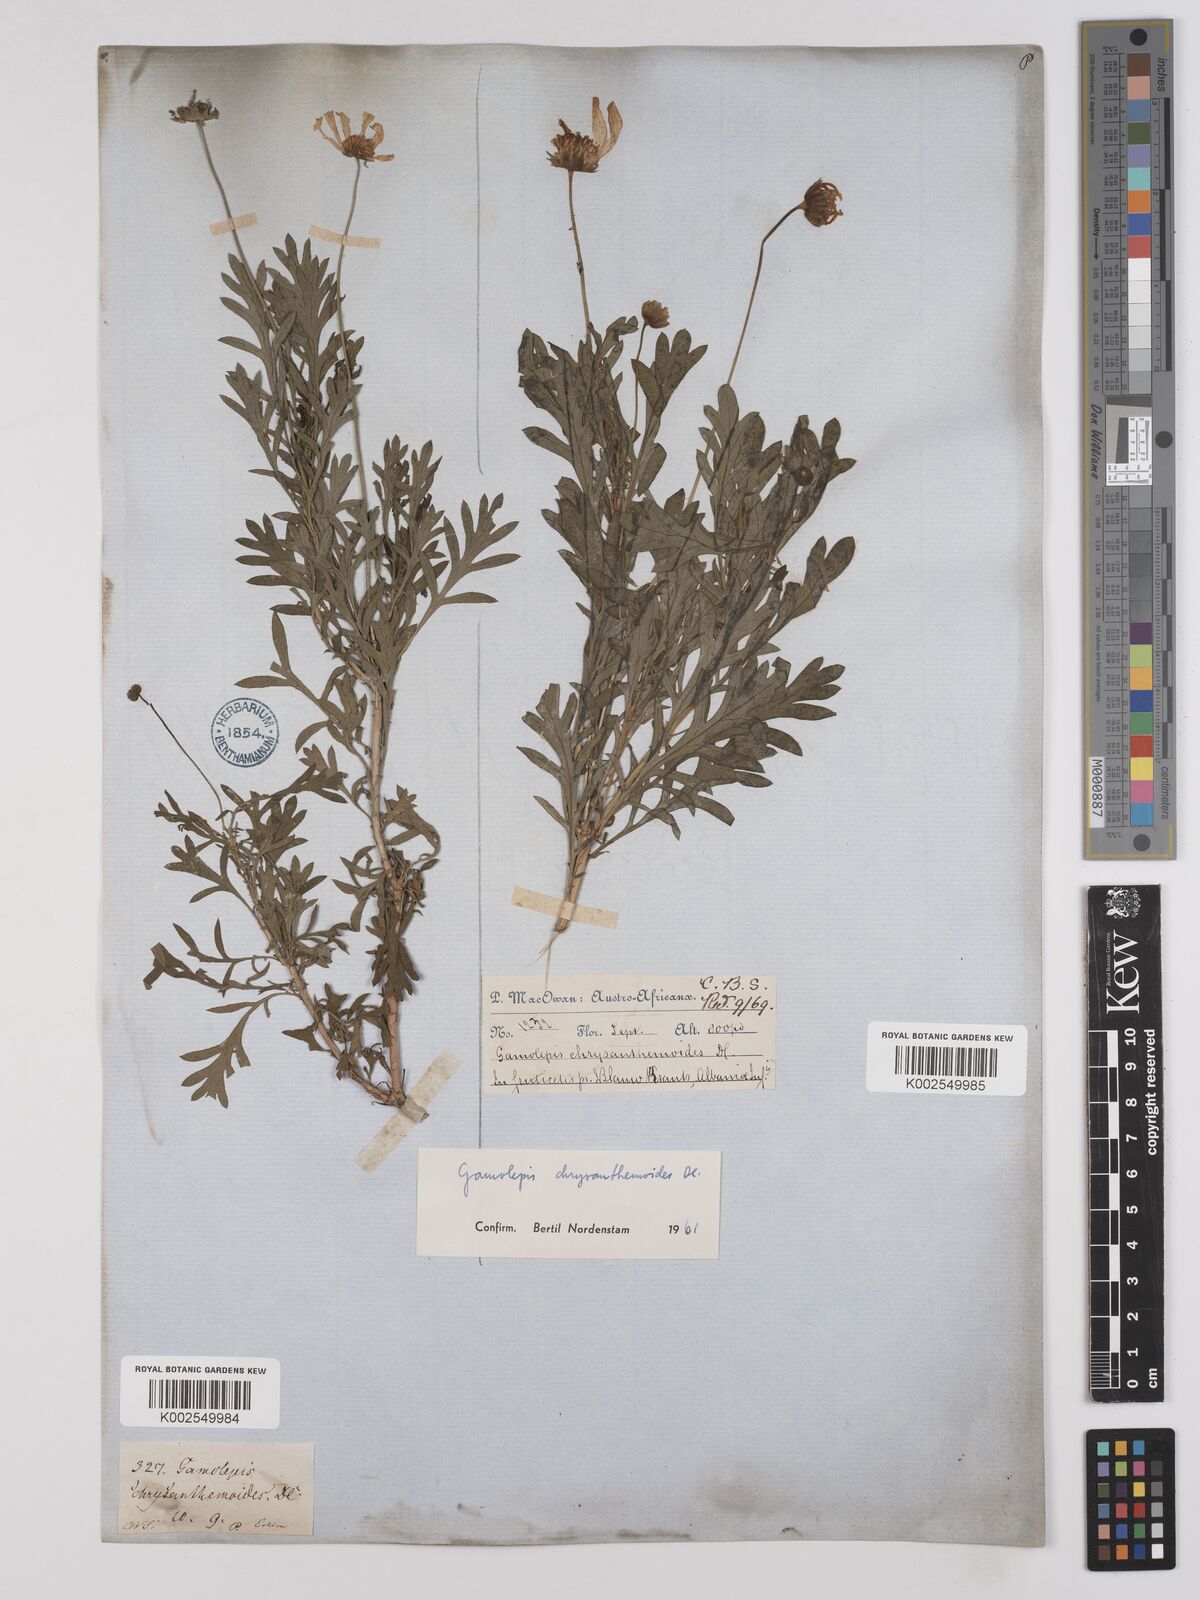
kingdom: Plantae
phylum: Tracheophyta
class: Magnoliopsida
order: Asterales
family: Asteraceae
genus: Euryops
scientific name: Euryops chrysanthemoides
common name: Bull's eye
